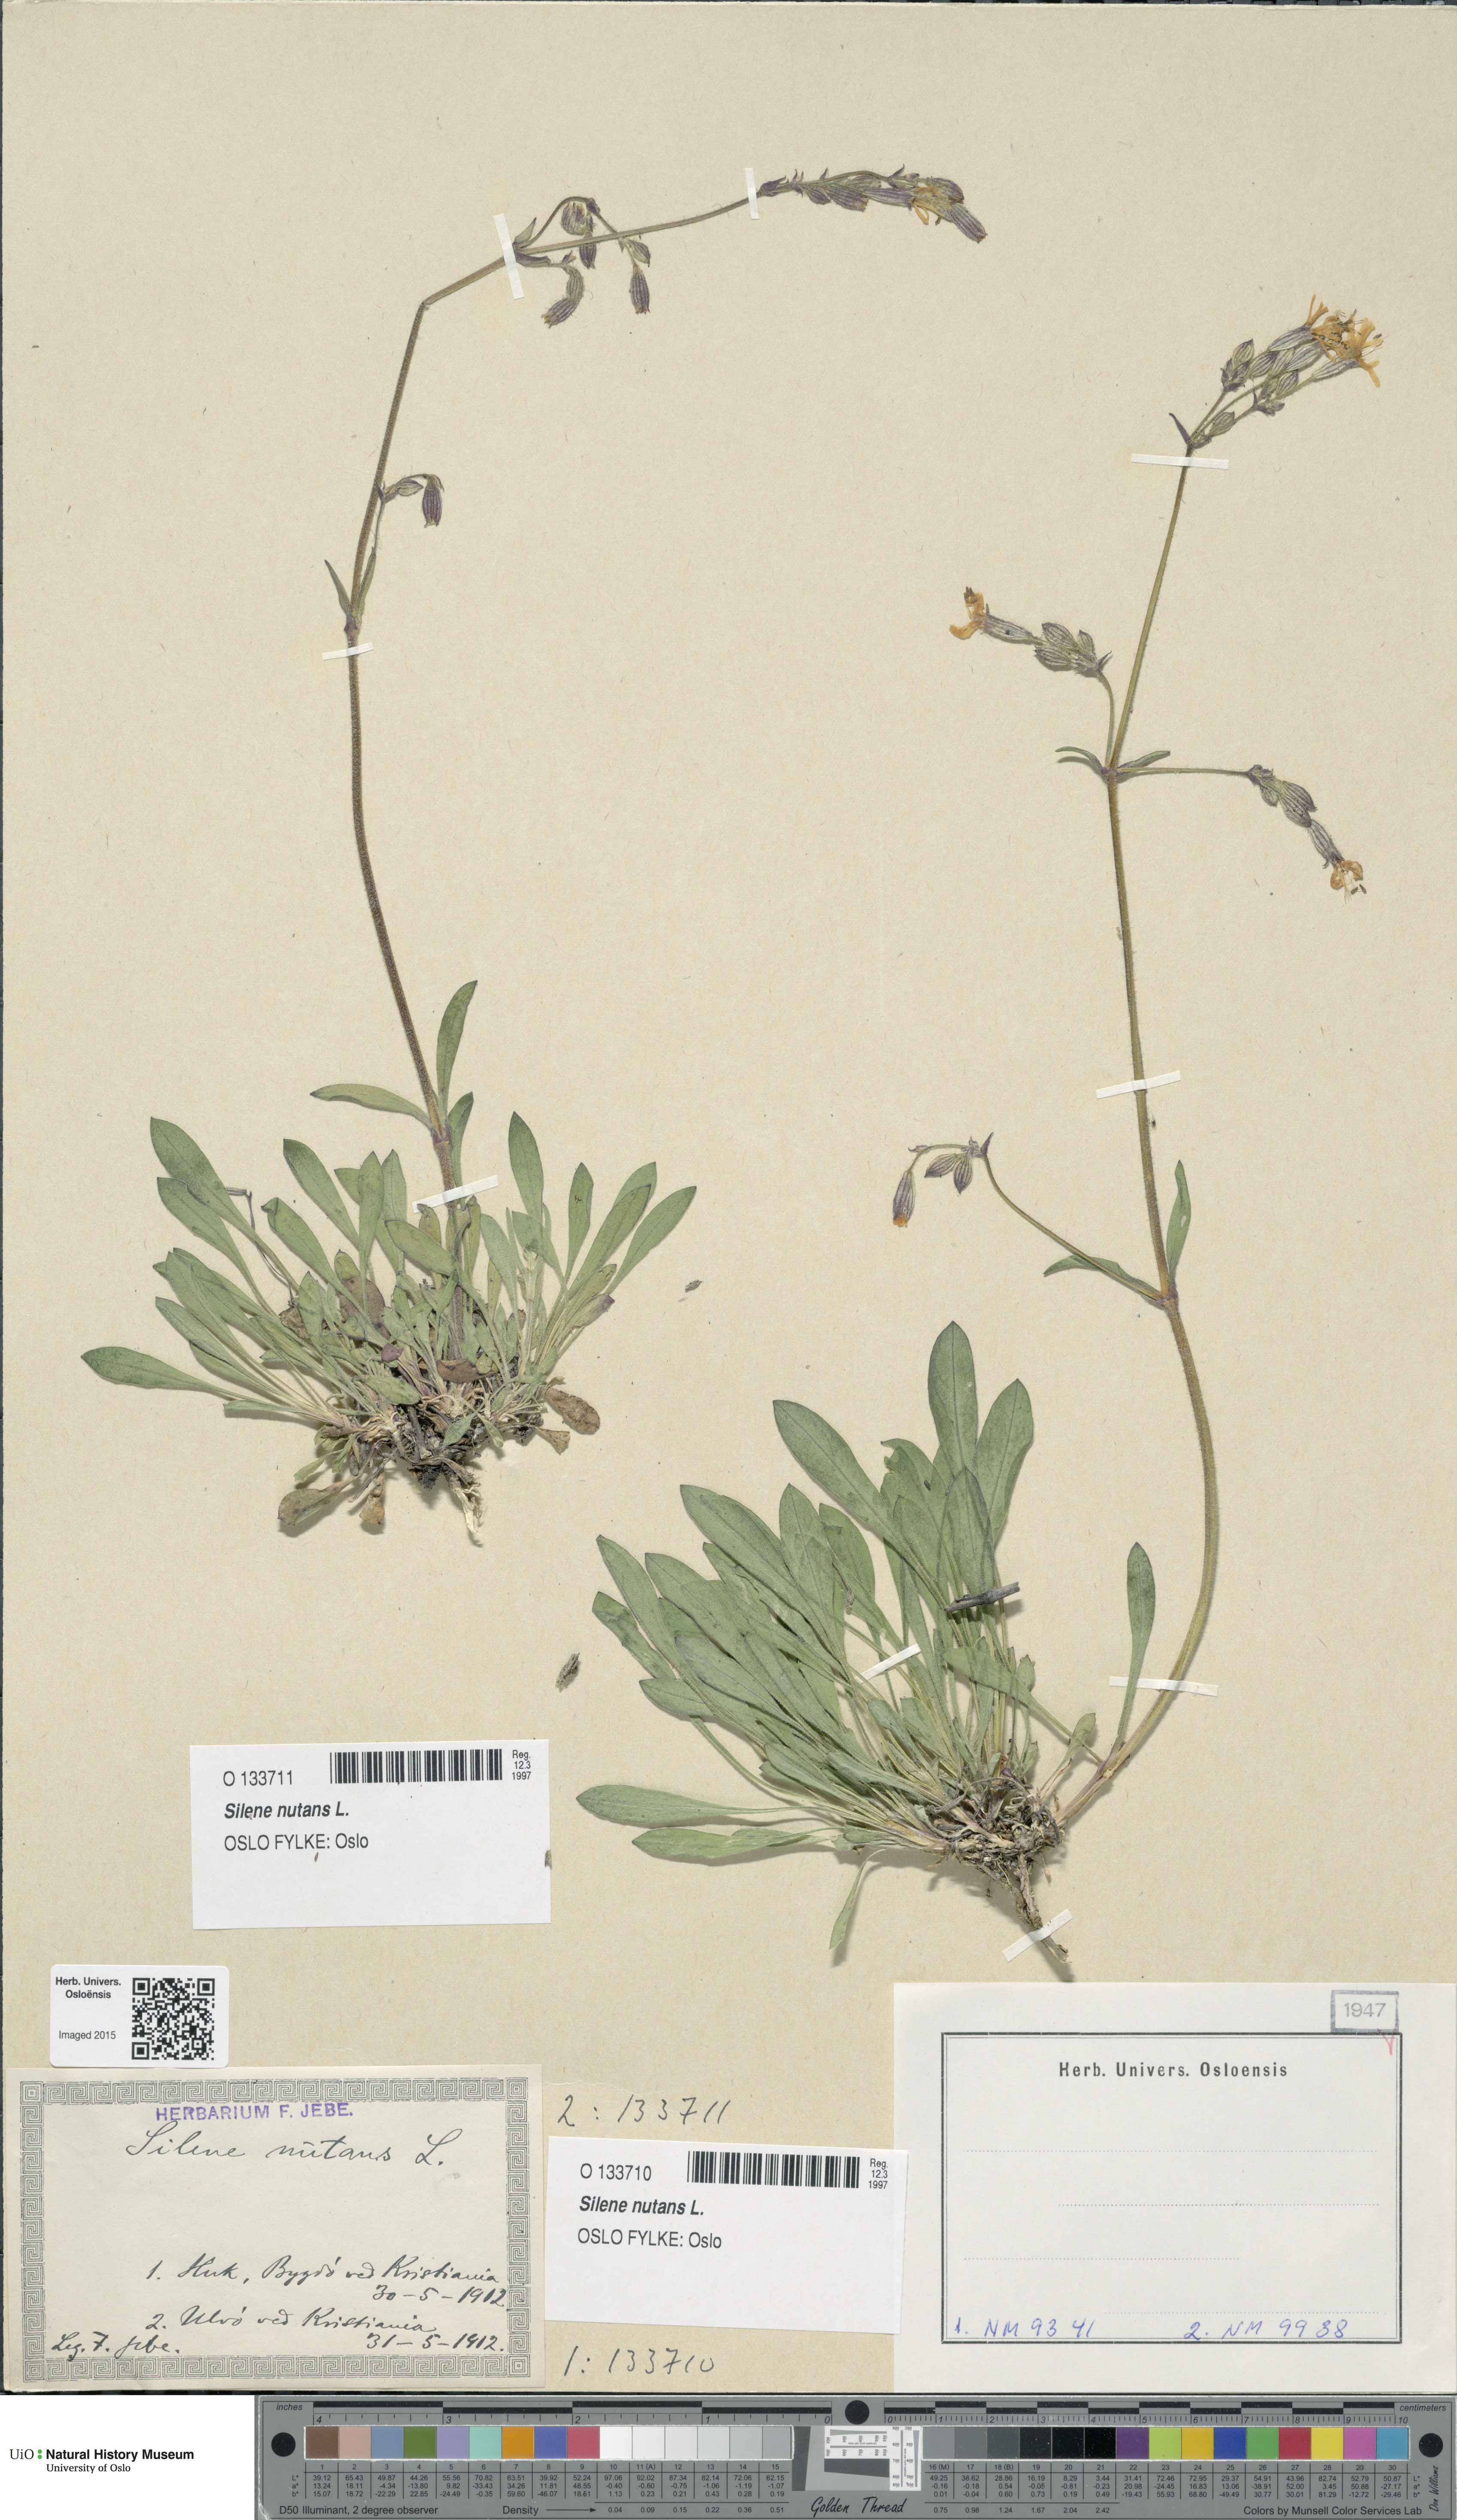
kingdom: Plantae
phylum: Tracheophyta
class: Magnoliopsida
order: Caryophyllales
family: Caryophyllaceae
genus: Silene
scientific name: Silene nutans
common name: Nottingham catchfly
